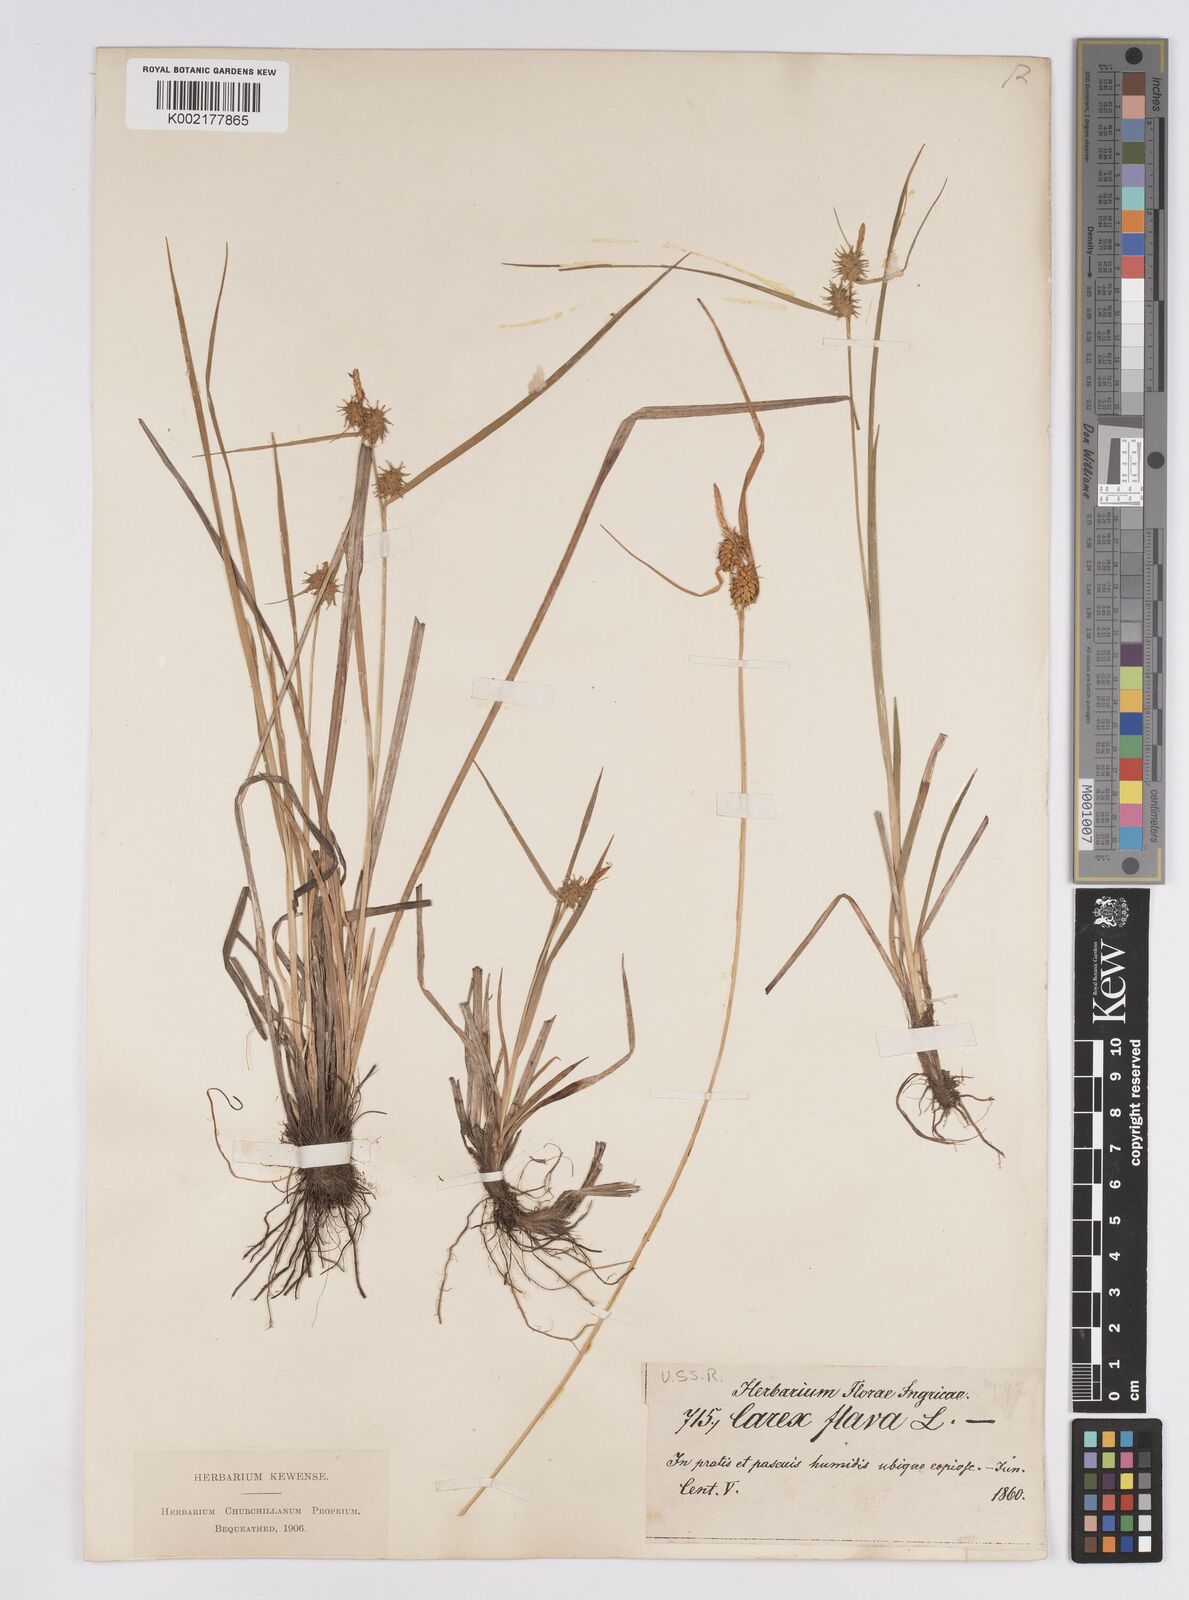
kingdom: Plantae
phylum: Tracheophyta
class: Liliopsida
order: Poales
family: Cyperaceae
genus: Carex
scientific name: Carex flava
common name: Large yellow-sedge
